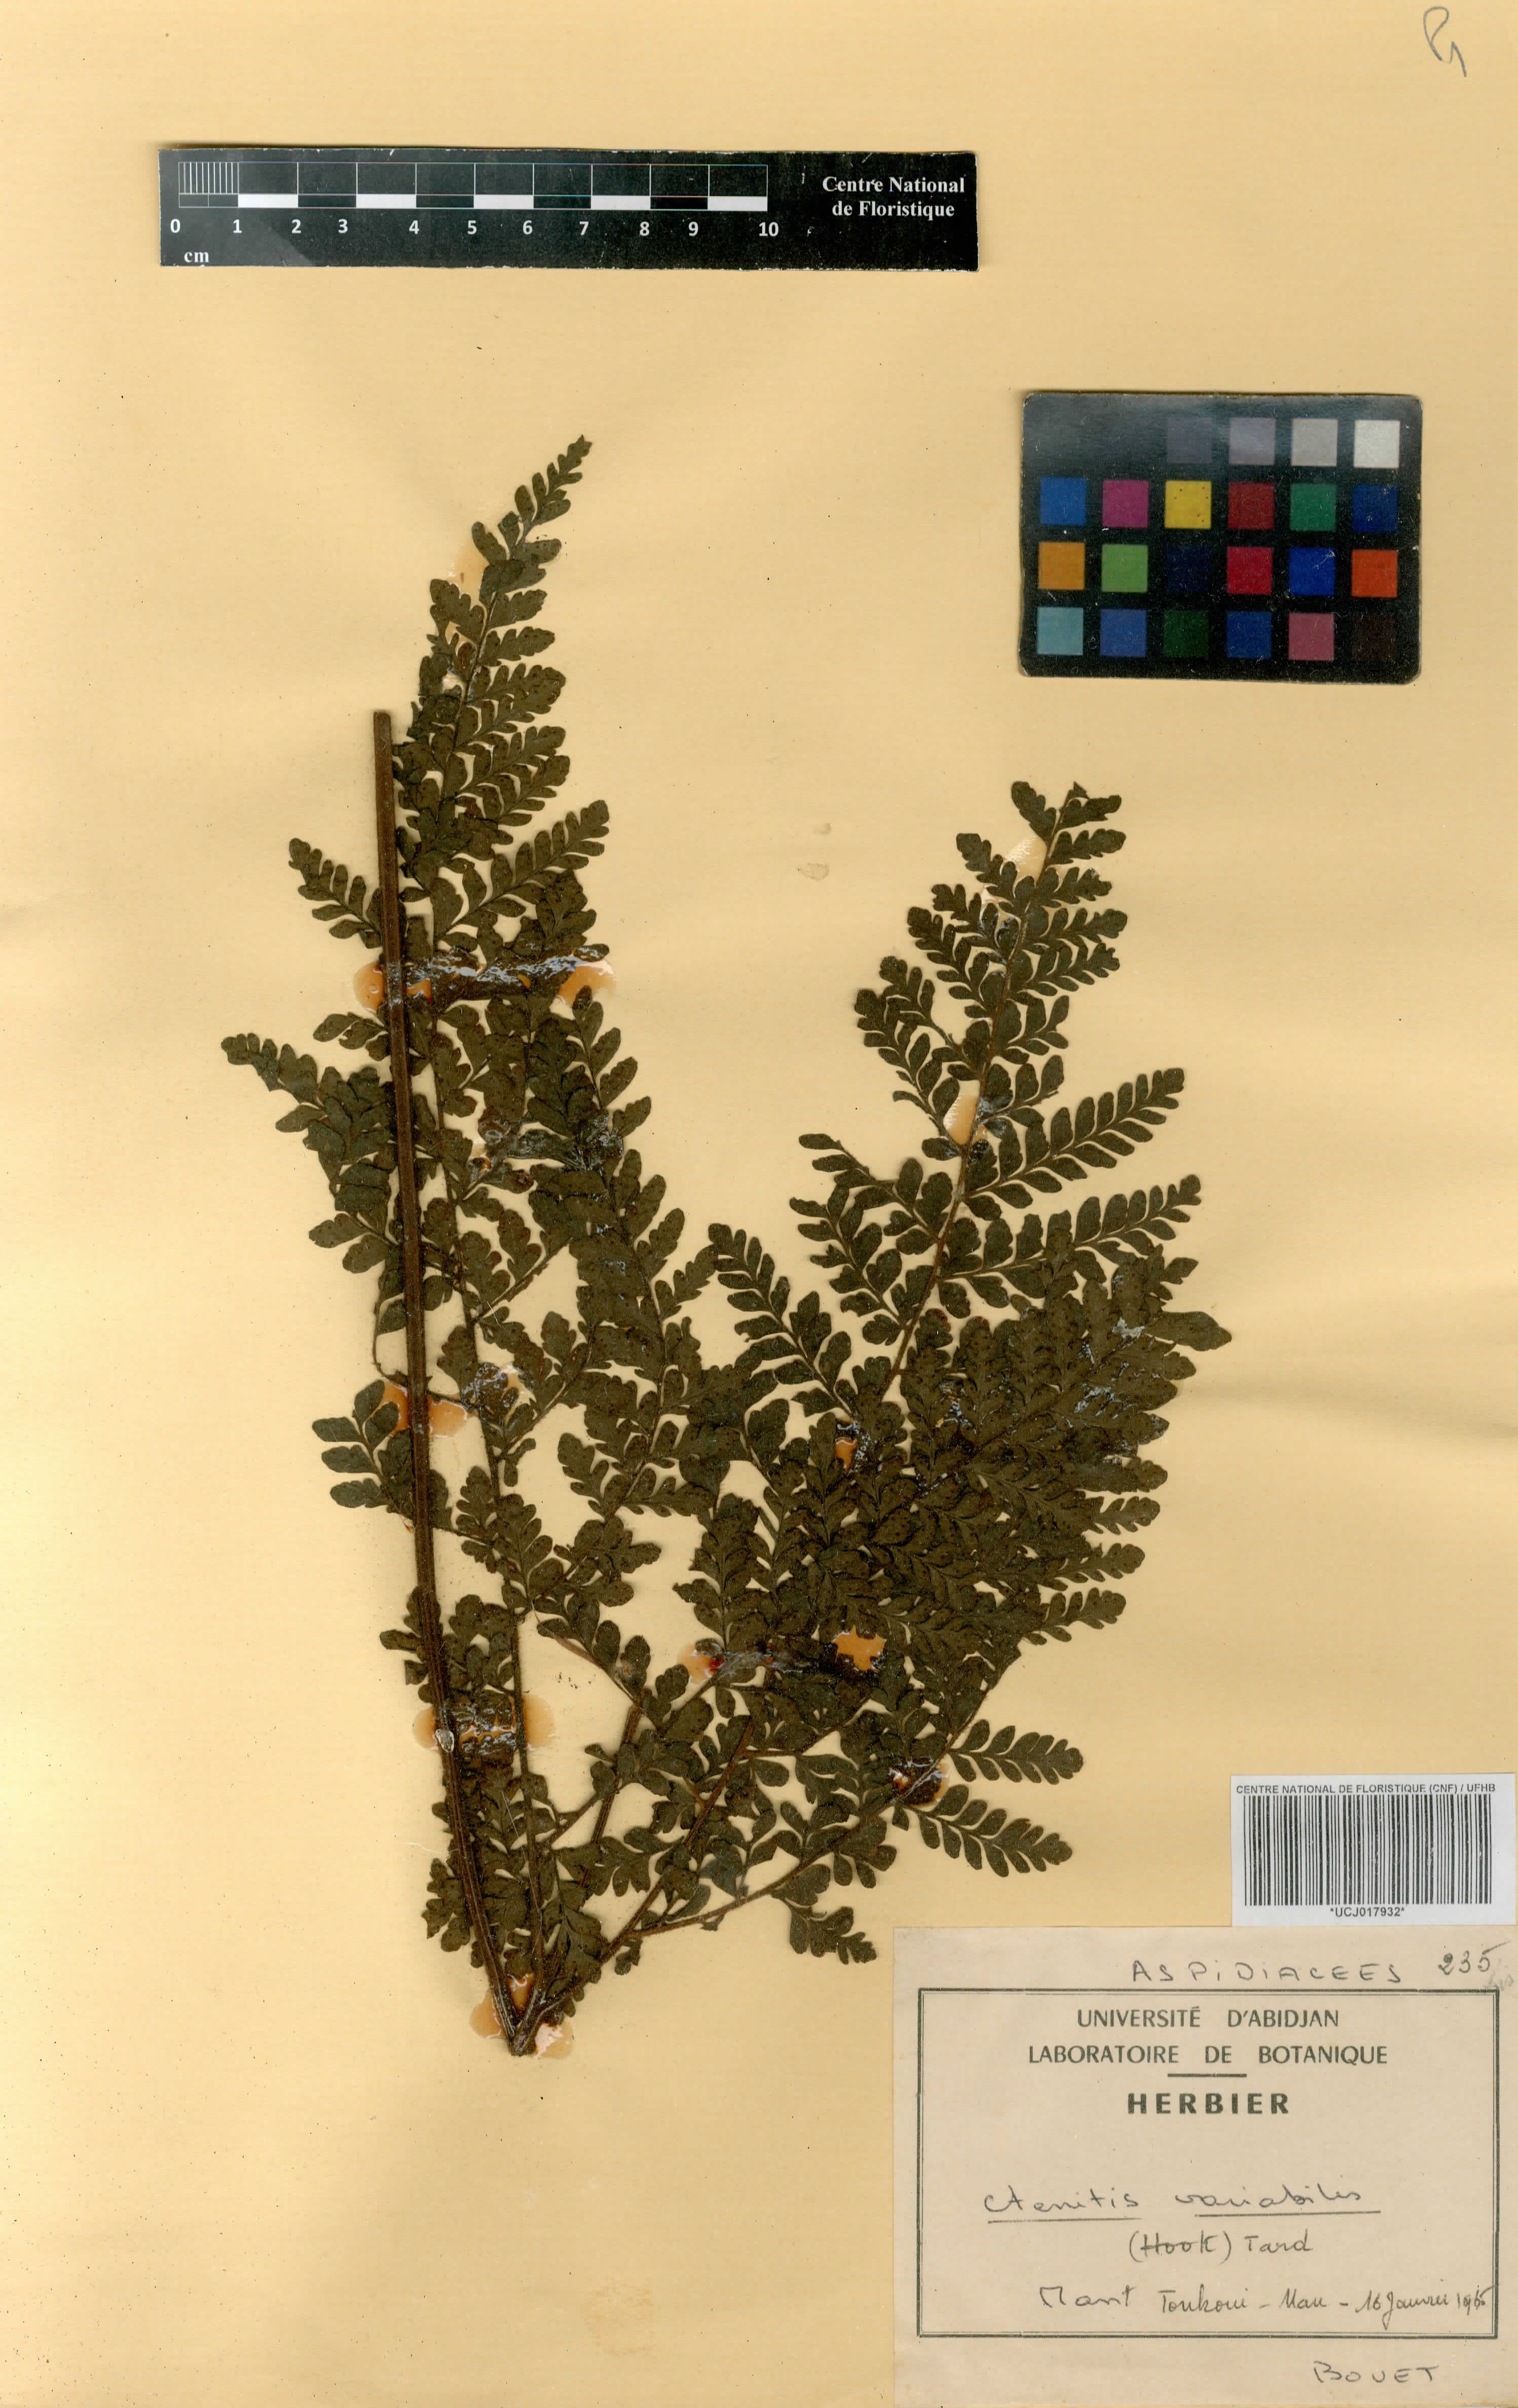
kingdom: Plantae
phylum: Tracheophyta
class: Polypodiopsida
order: Polypodiales
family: Tectariaceae
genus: Triplophyllum
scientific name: Triplophyllum pilosissimum
